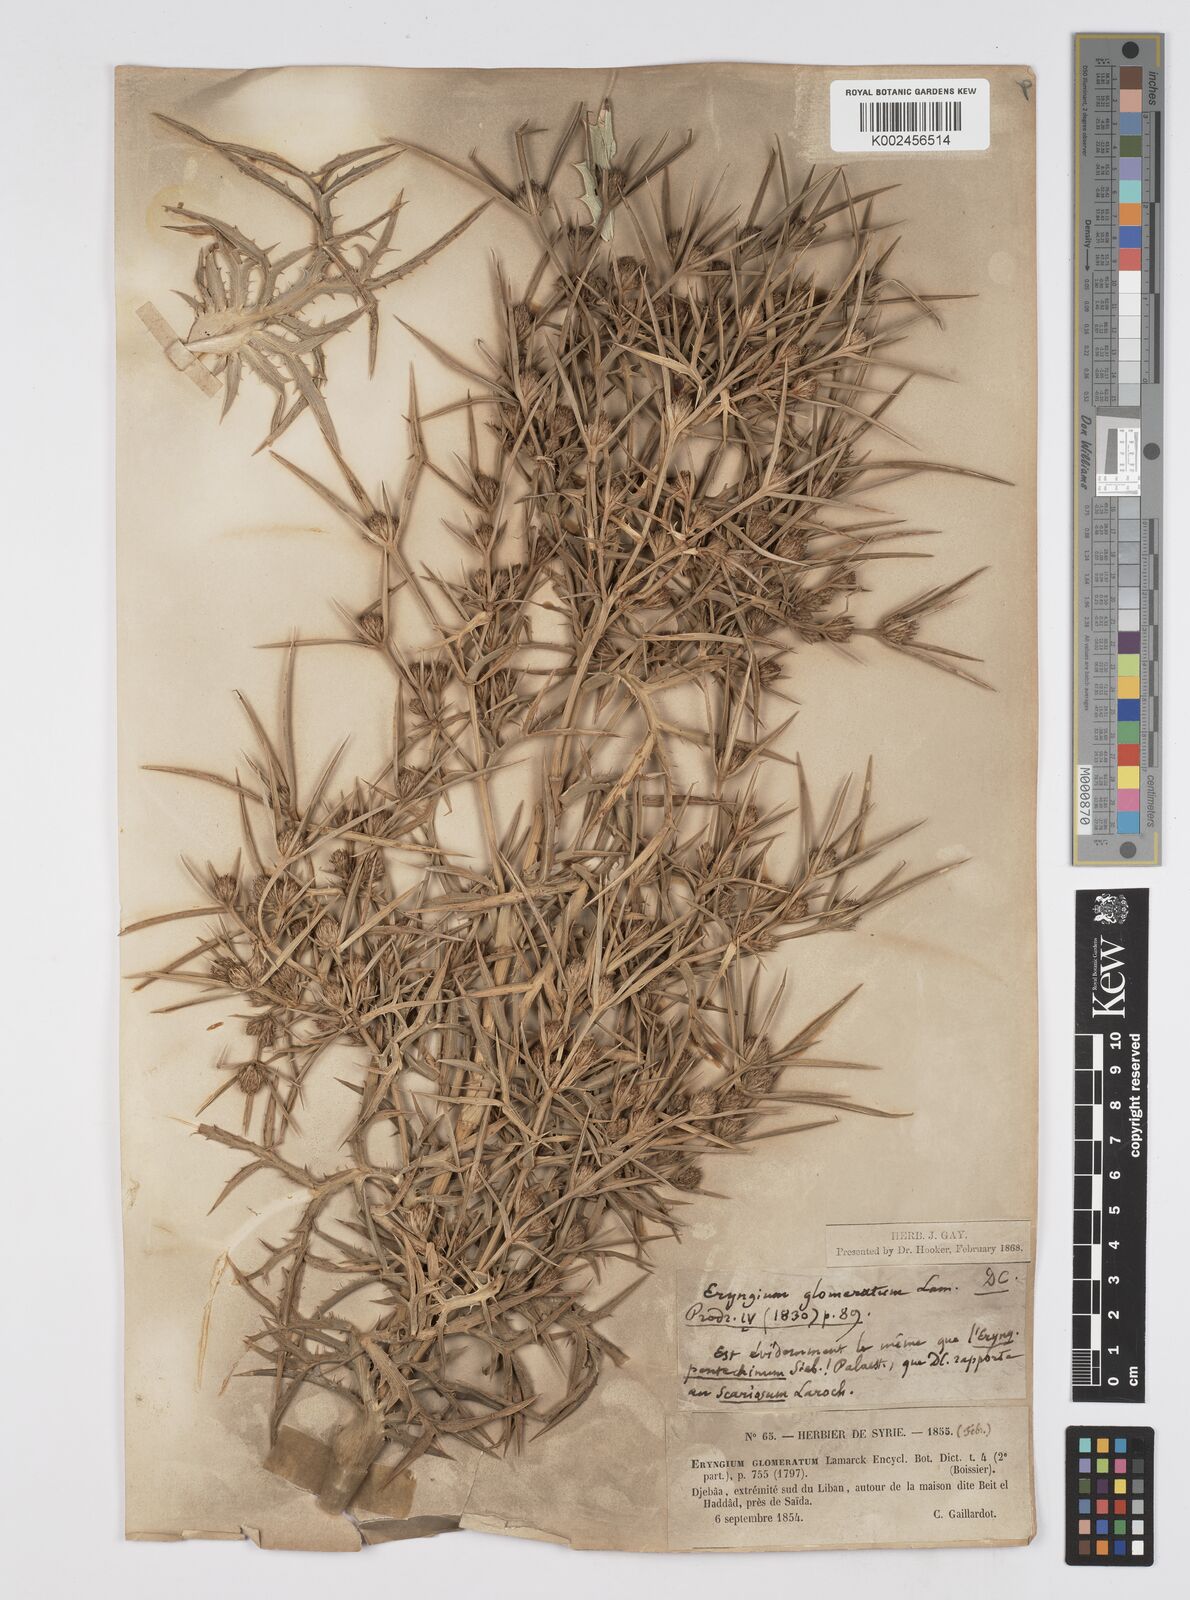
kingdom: Plantae
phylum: Tracheophyta
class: Magnoliopsida
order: Apiales
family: Apiaceae
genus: Eryngium
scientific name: Eryngium glomeratum
